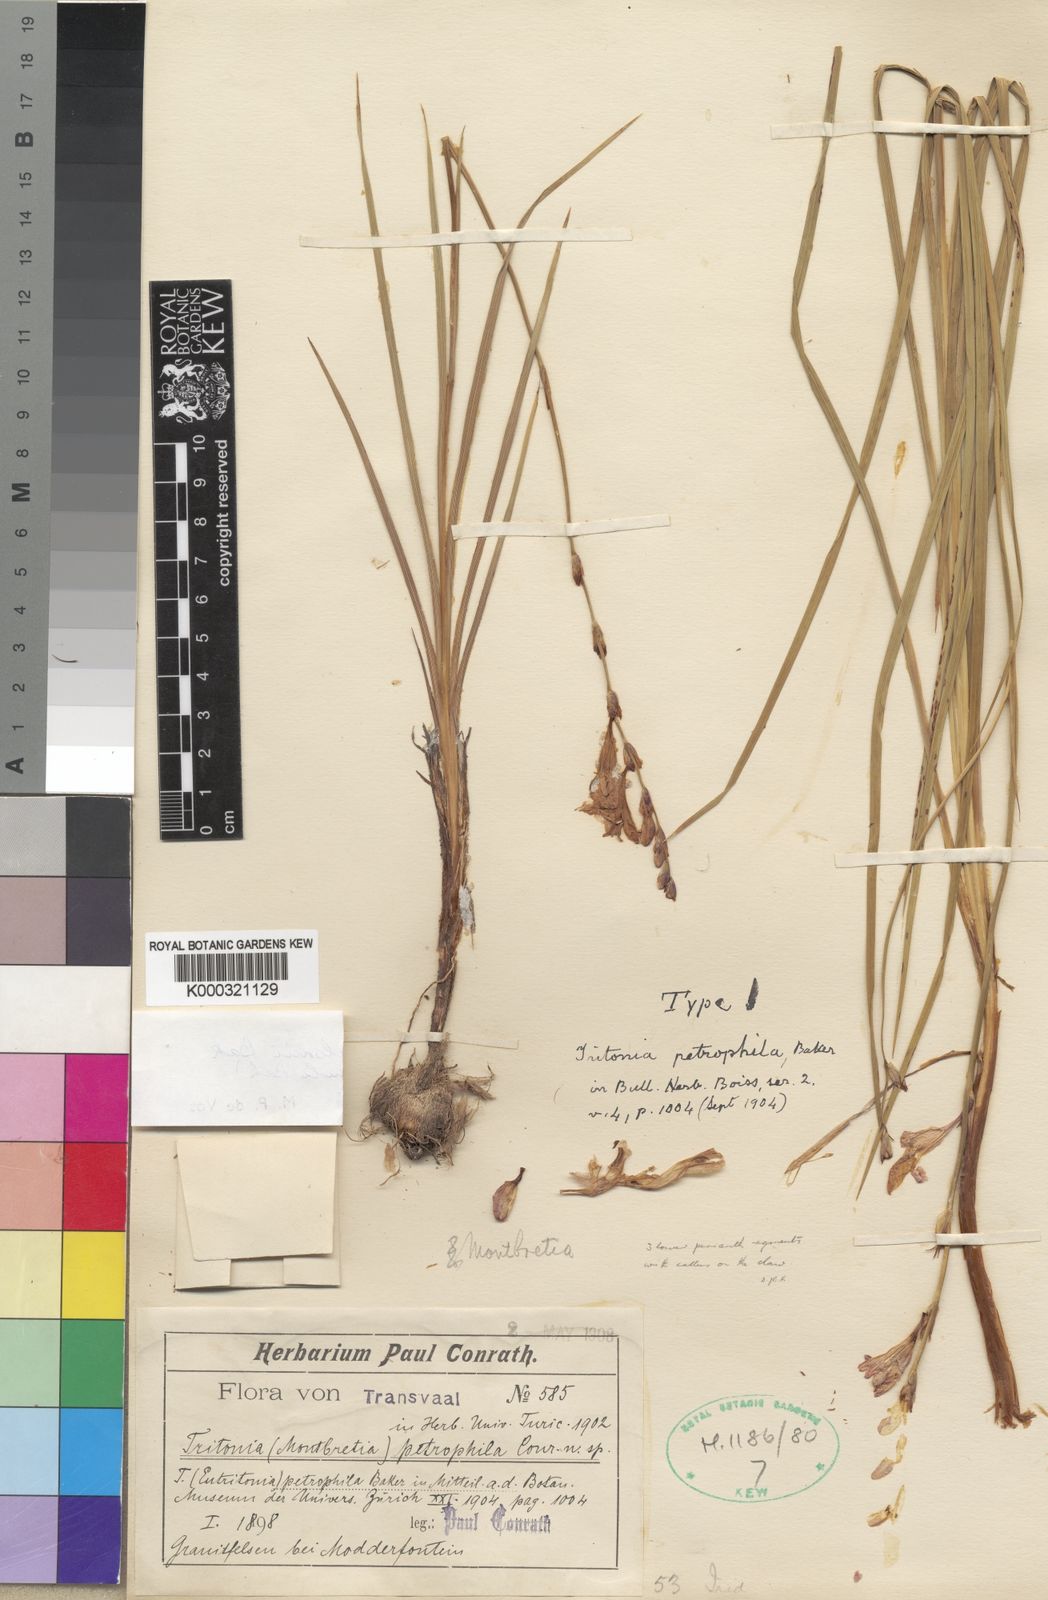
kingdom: Plantae
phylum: Tracheophyta
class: Liliopsida
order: Asparagales
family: Iridaceae
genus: Tritonia
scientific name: Tritonia nelsonii
